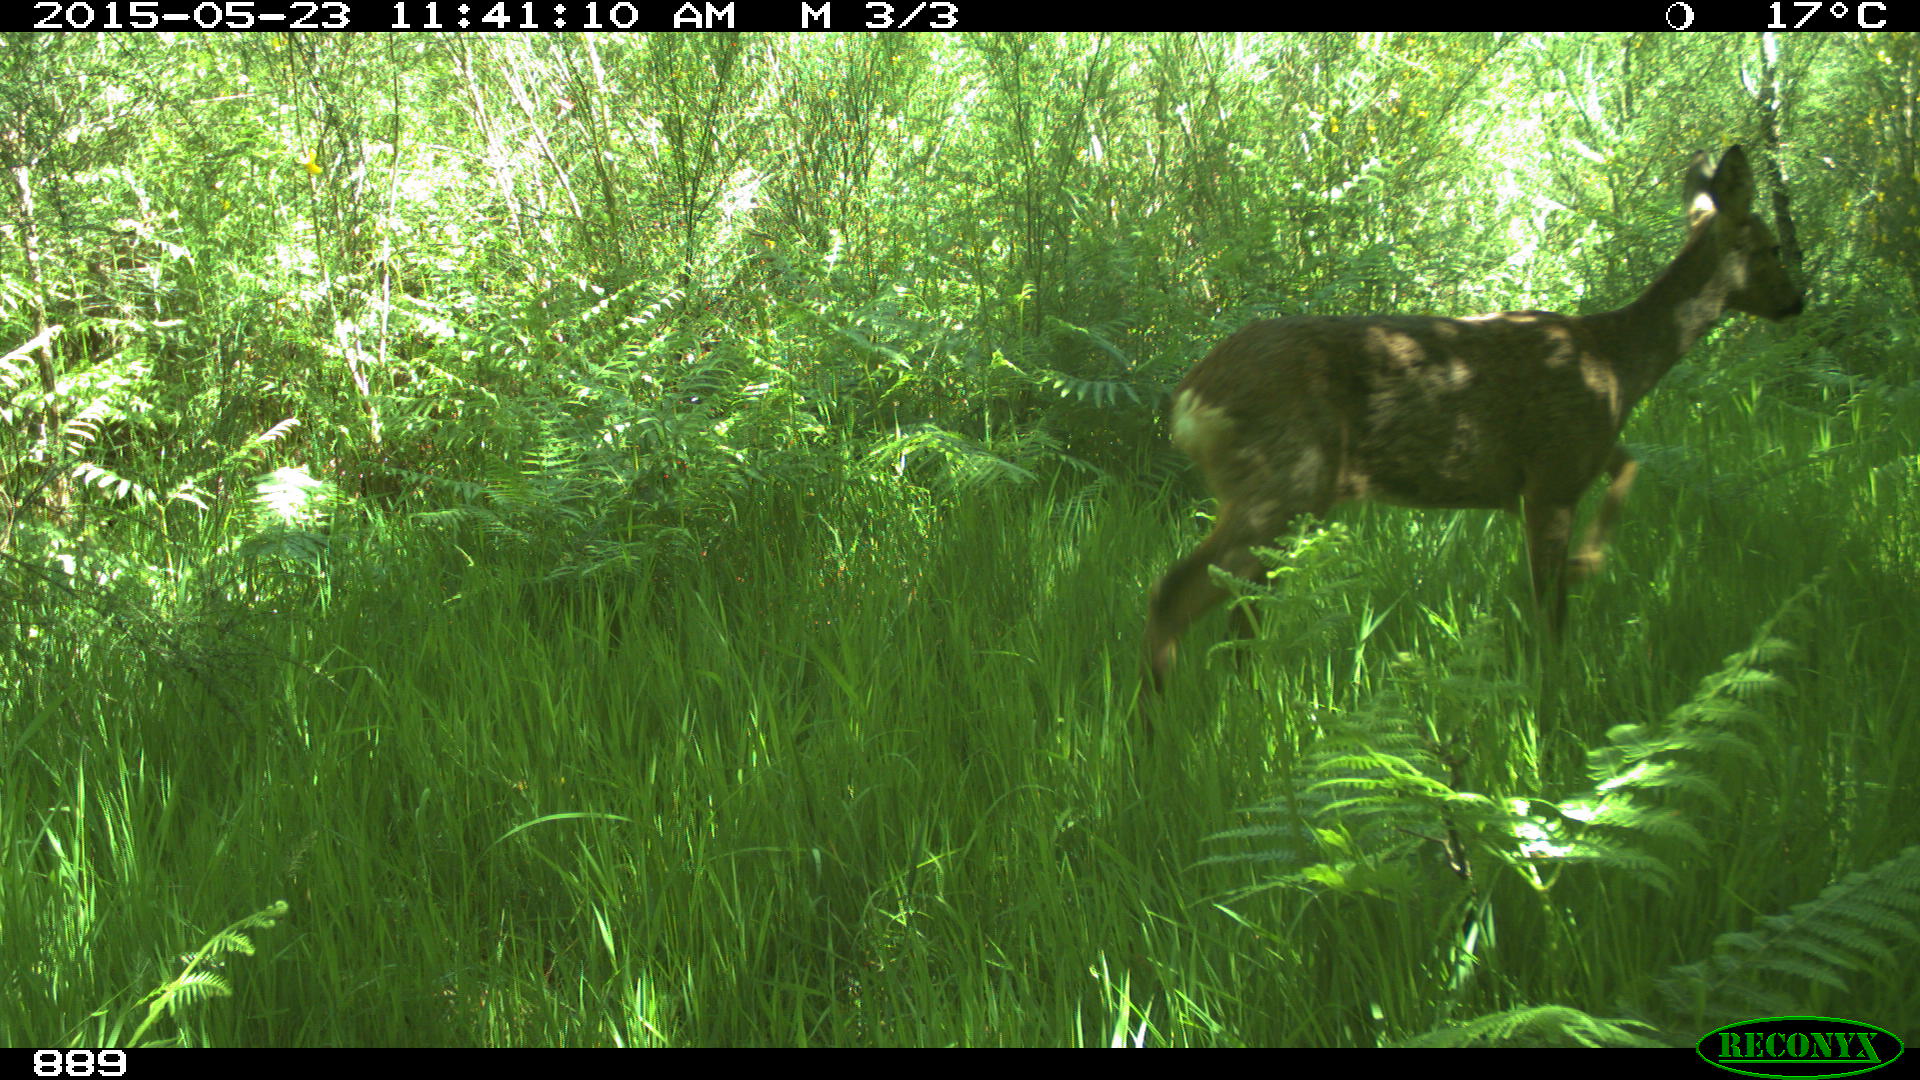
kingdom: Animalia
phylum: Chordata
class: Mammalia
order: Artiodactyla
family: Cervidae
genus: Capreolus
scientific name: Capreolus capreolus
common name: Western roe deer
